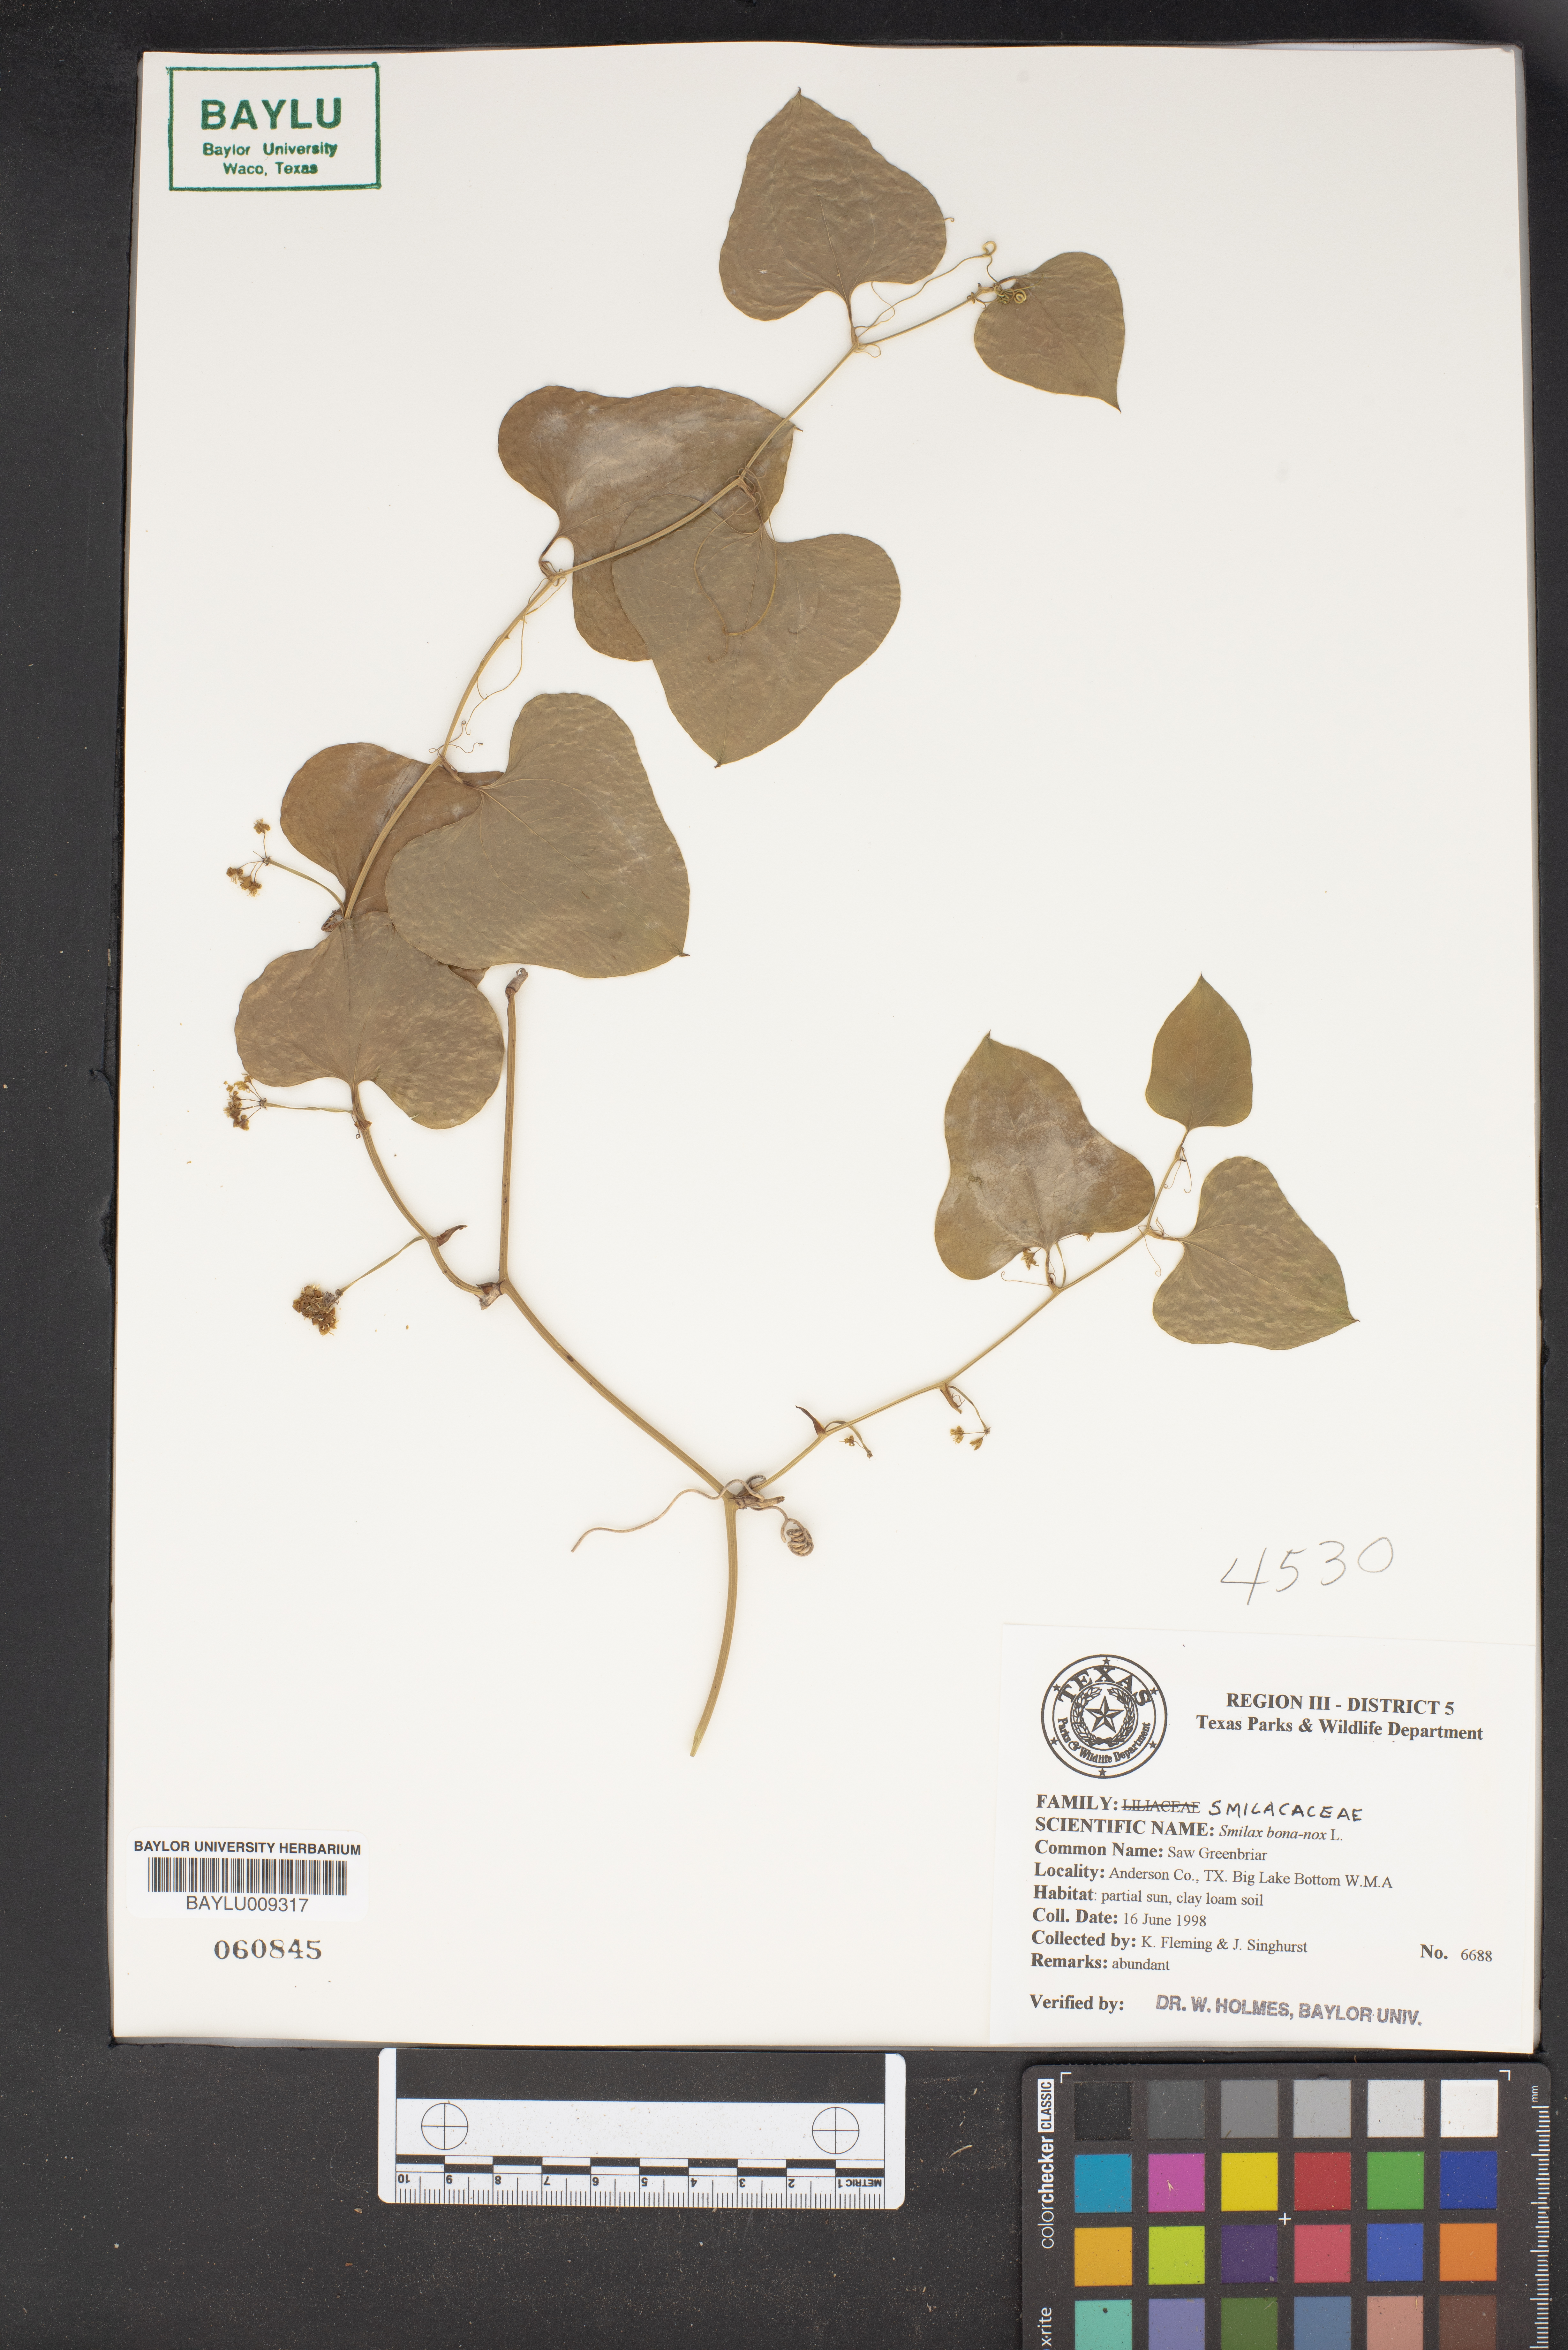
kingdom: Plantae
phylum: Tracheophyta
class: Liliopsida
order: Liliales
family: Smilacaceae
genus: Smilax
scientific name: Smilax bona-nox
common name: Catbrier
